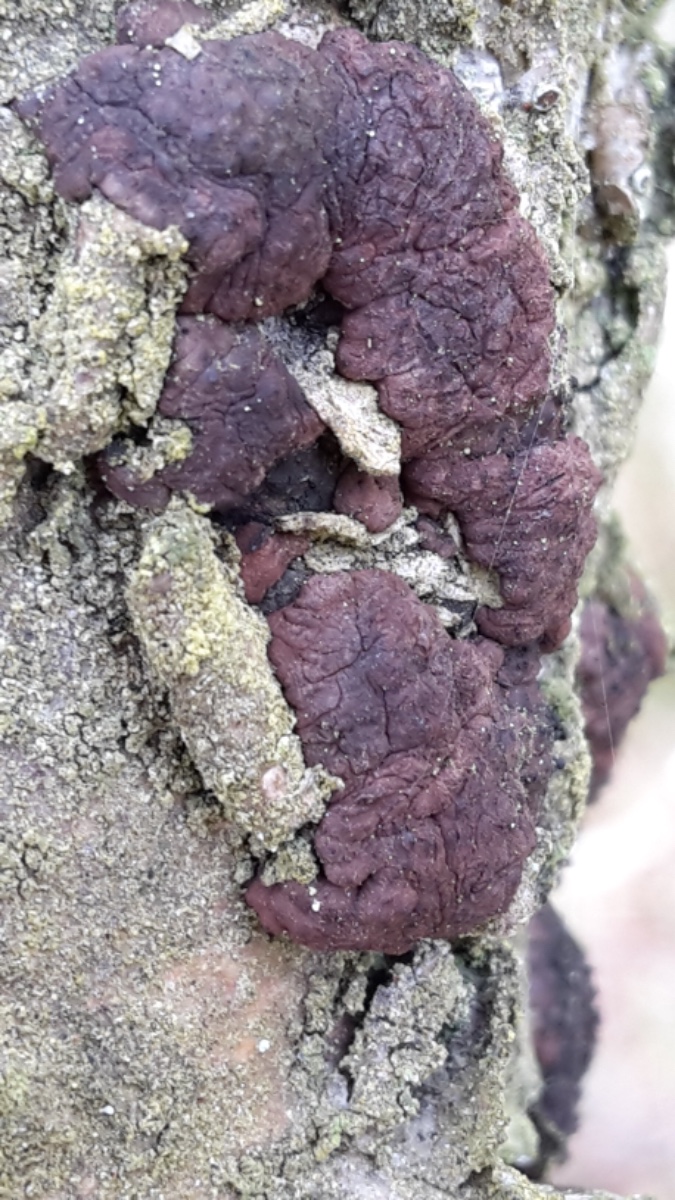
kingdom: Fungi
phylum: Ascomycota
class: Sordariomycetes
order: Xylariales
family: Hypoxylaceae
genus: Jackrogersella
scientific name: Jackrogersella multiformis
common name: foranderlig kulbær
